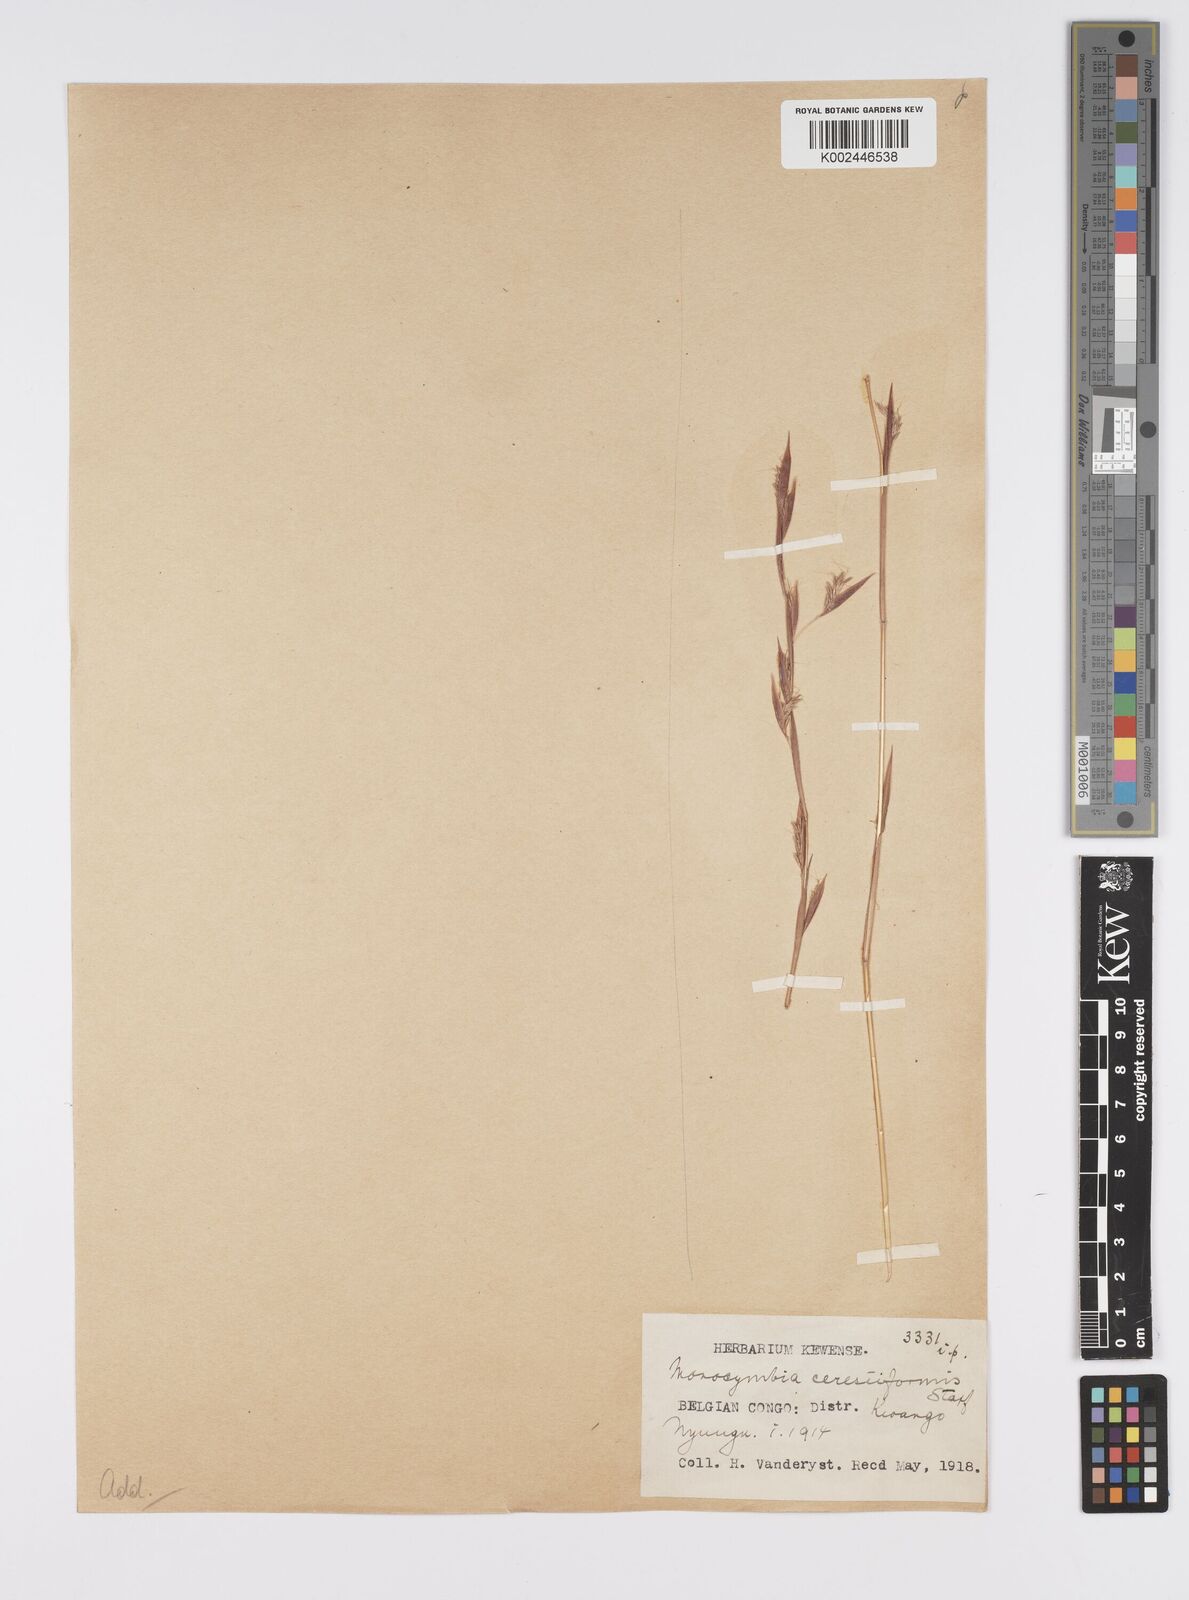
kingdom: Plantae
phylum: Tracheophyta
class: Liliopsida
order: Poales
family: Poaceae
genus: Monocymbium
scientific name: Monocymbium ceresiiforme
